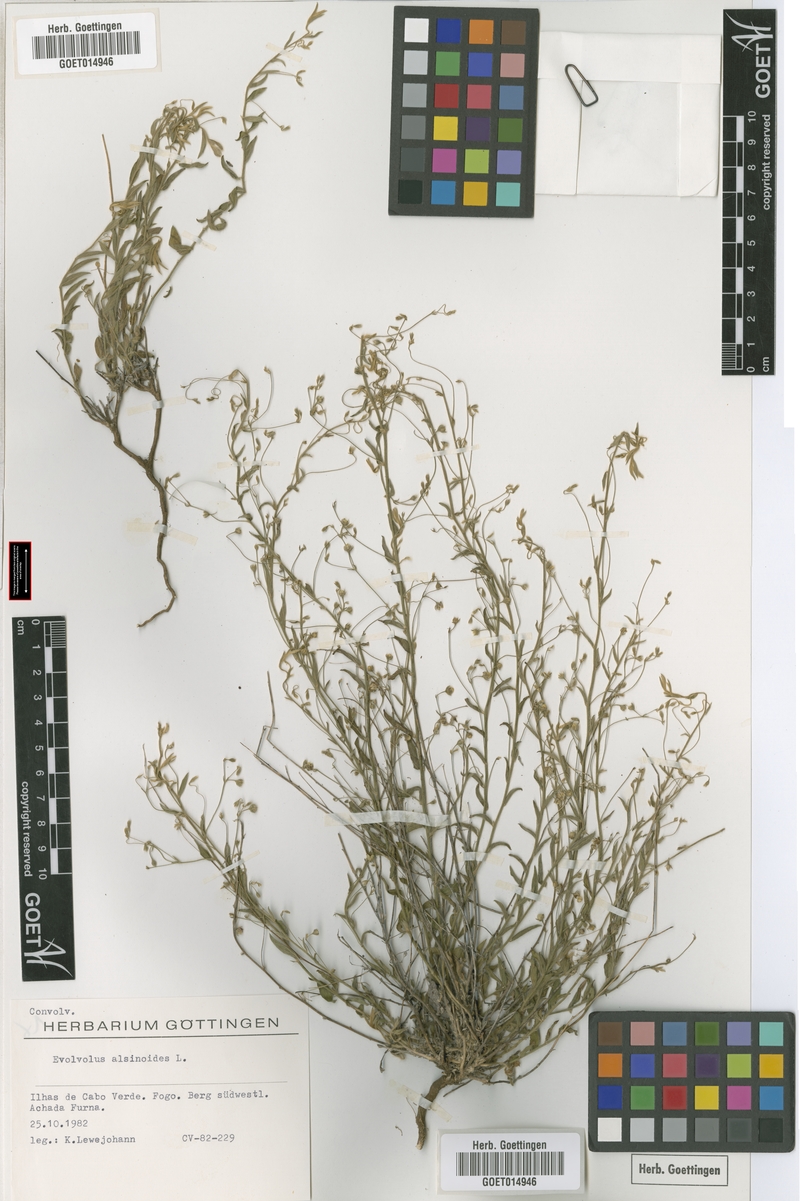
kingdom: Plantae
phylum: Tracheophyta
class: Magnoliopsida
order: Solanales
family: Convolvulaceae
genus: Evolvulus
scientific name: Evolvulus alsinoides
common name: Slender dwarf morning-glory
